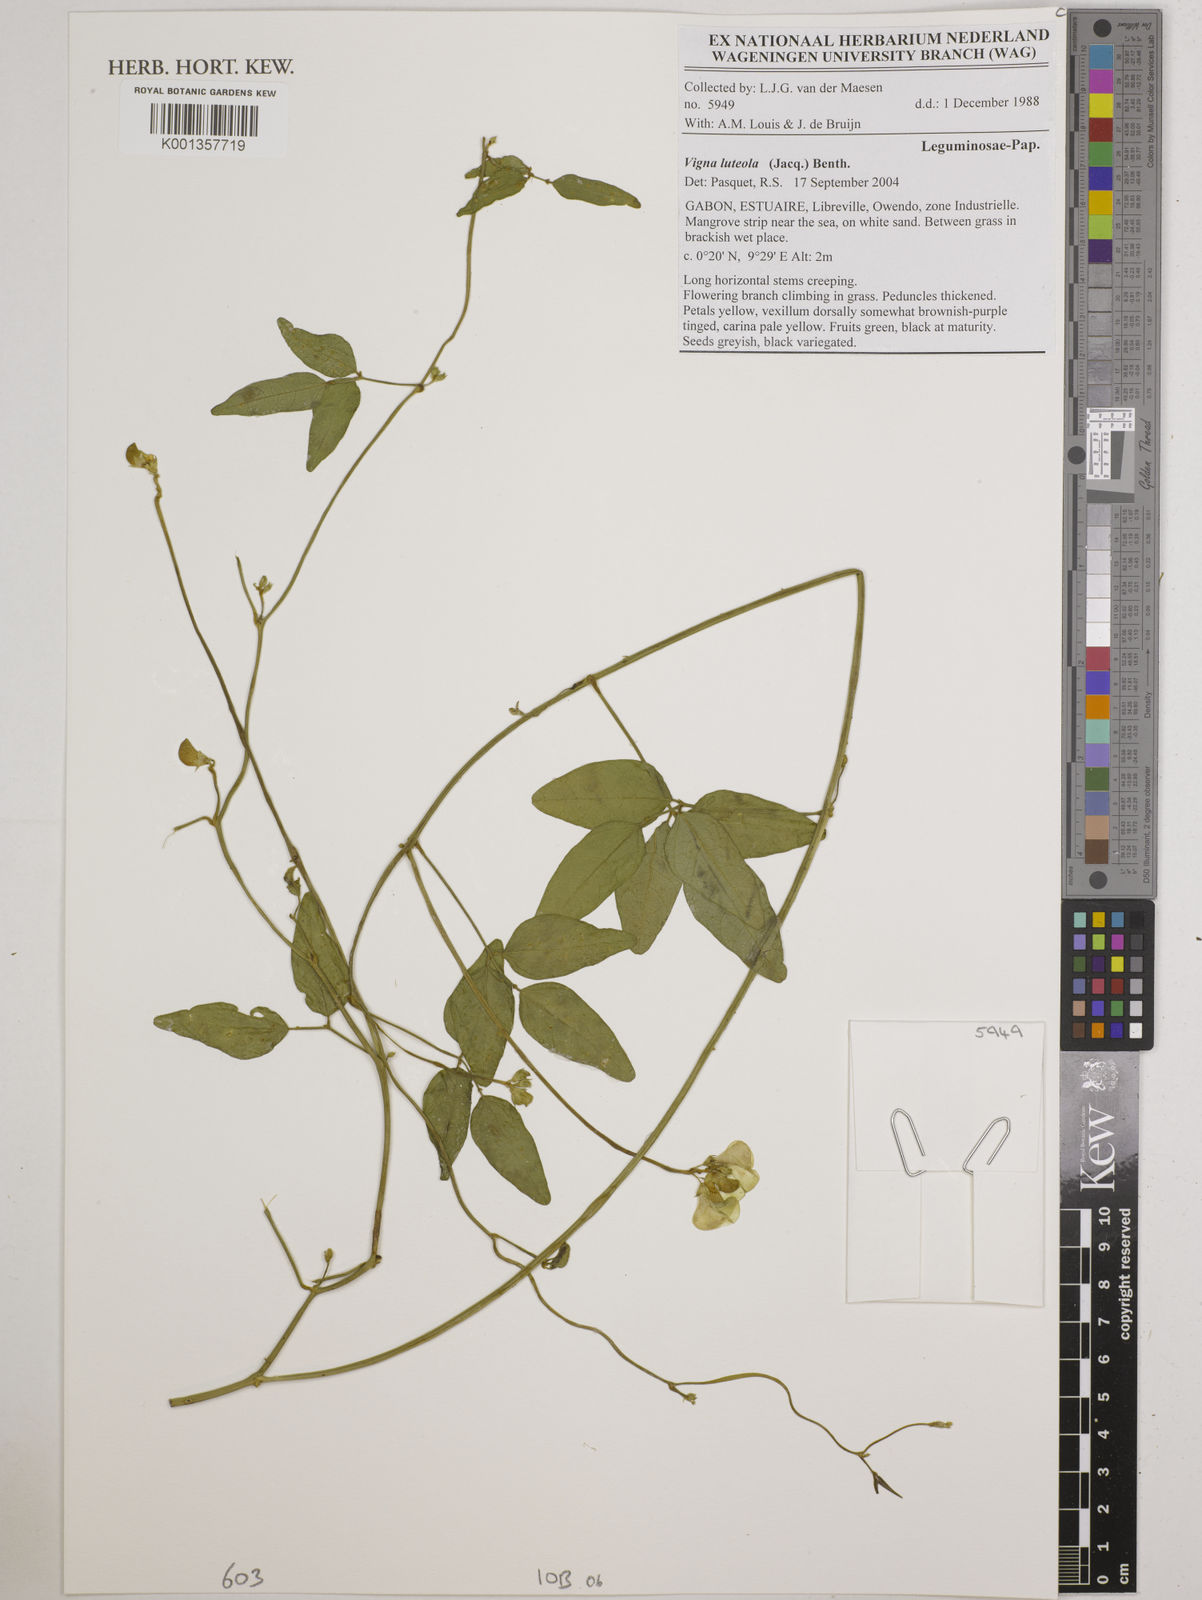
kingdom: Plantae
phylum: Tracheophyta
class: Magnoliopsida
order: Fabales
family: Fabaceae
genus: Vigna
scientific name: Vigna luteola
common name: Hairypod cowpea
